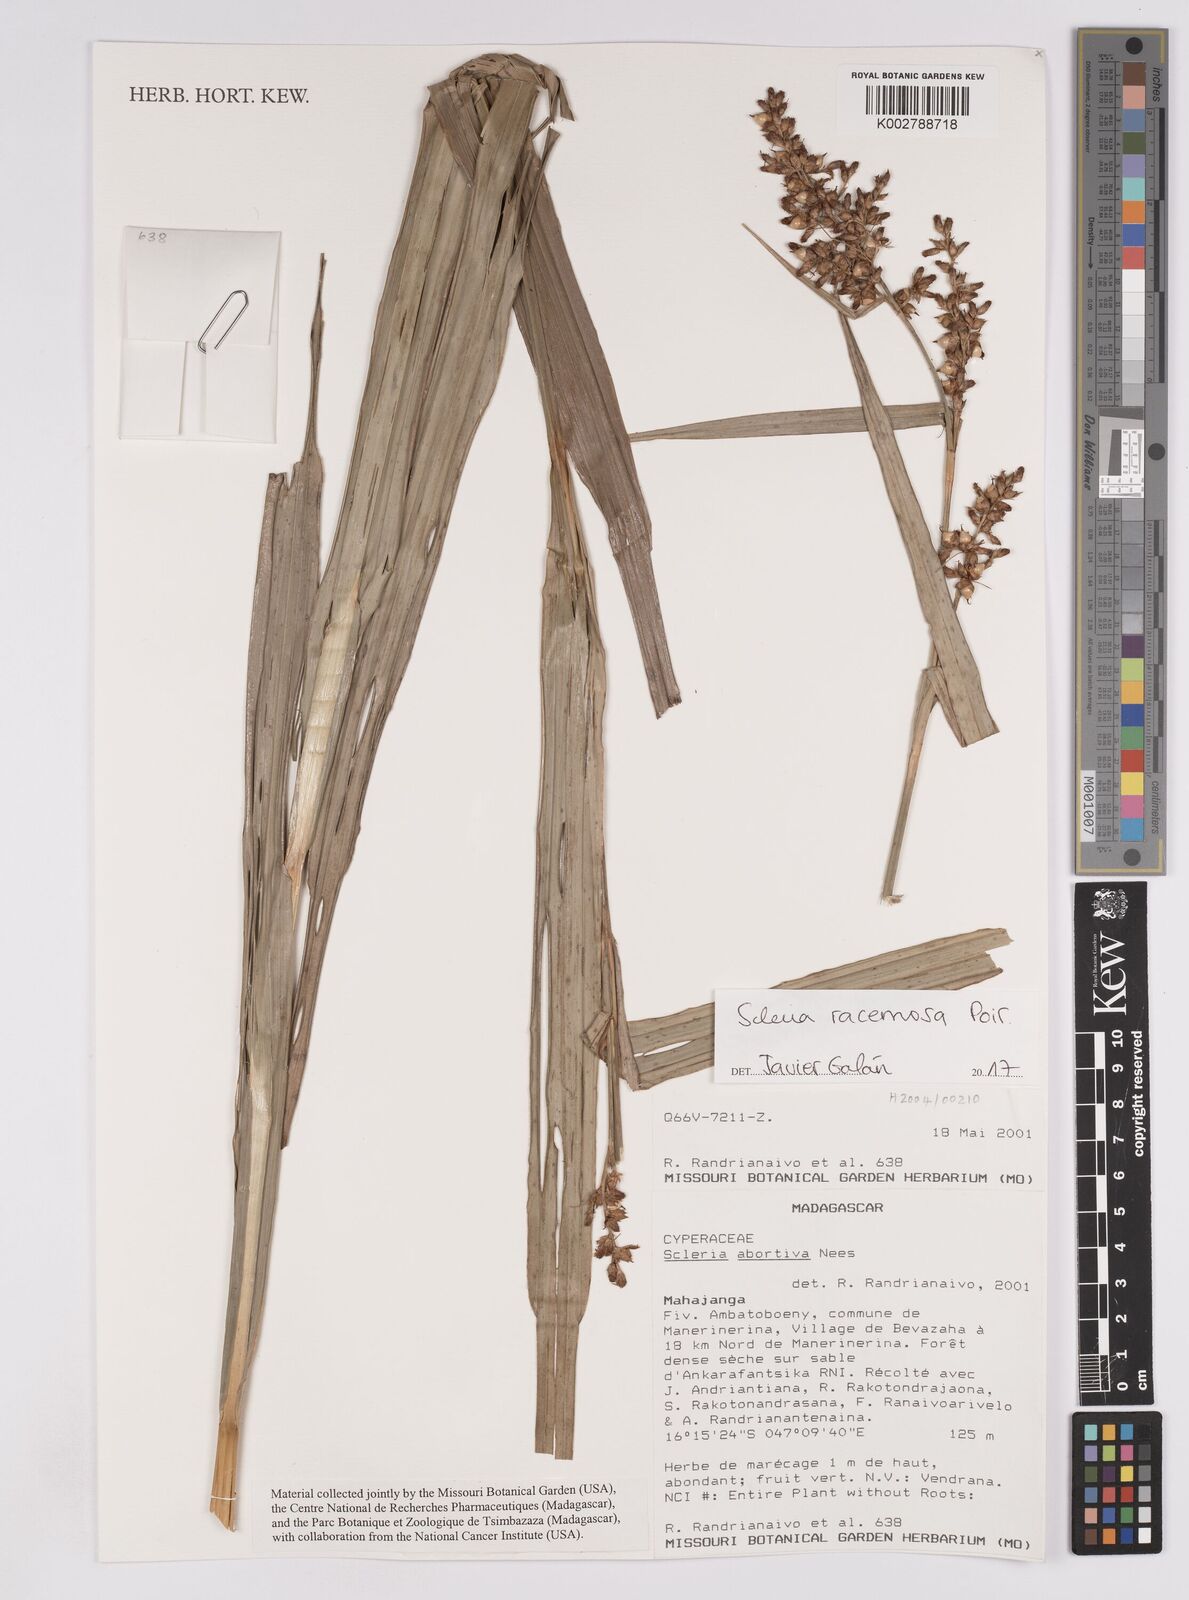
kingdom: Plantae
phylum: Tracheophyta
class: Liliopsida
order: Poales
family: Cyperaceae
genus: Scleria
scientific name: Scleria racemosa
